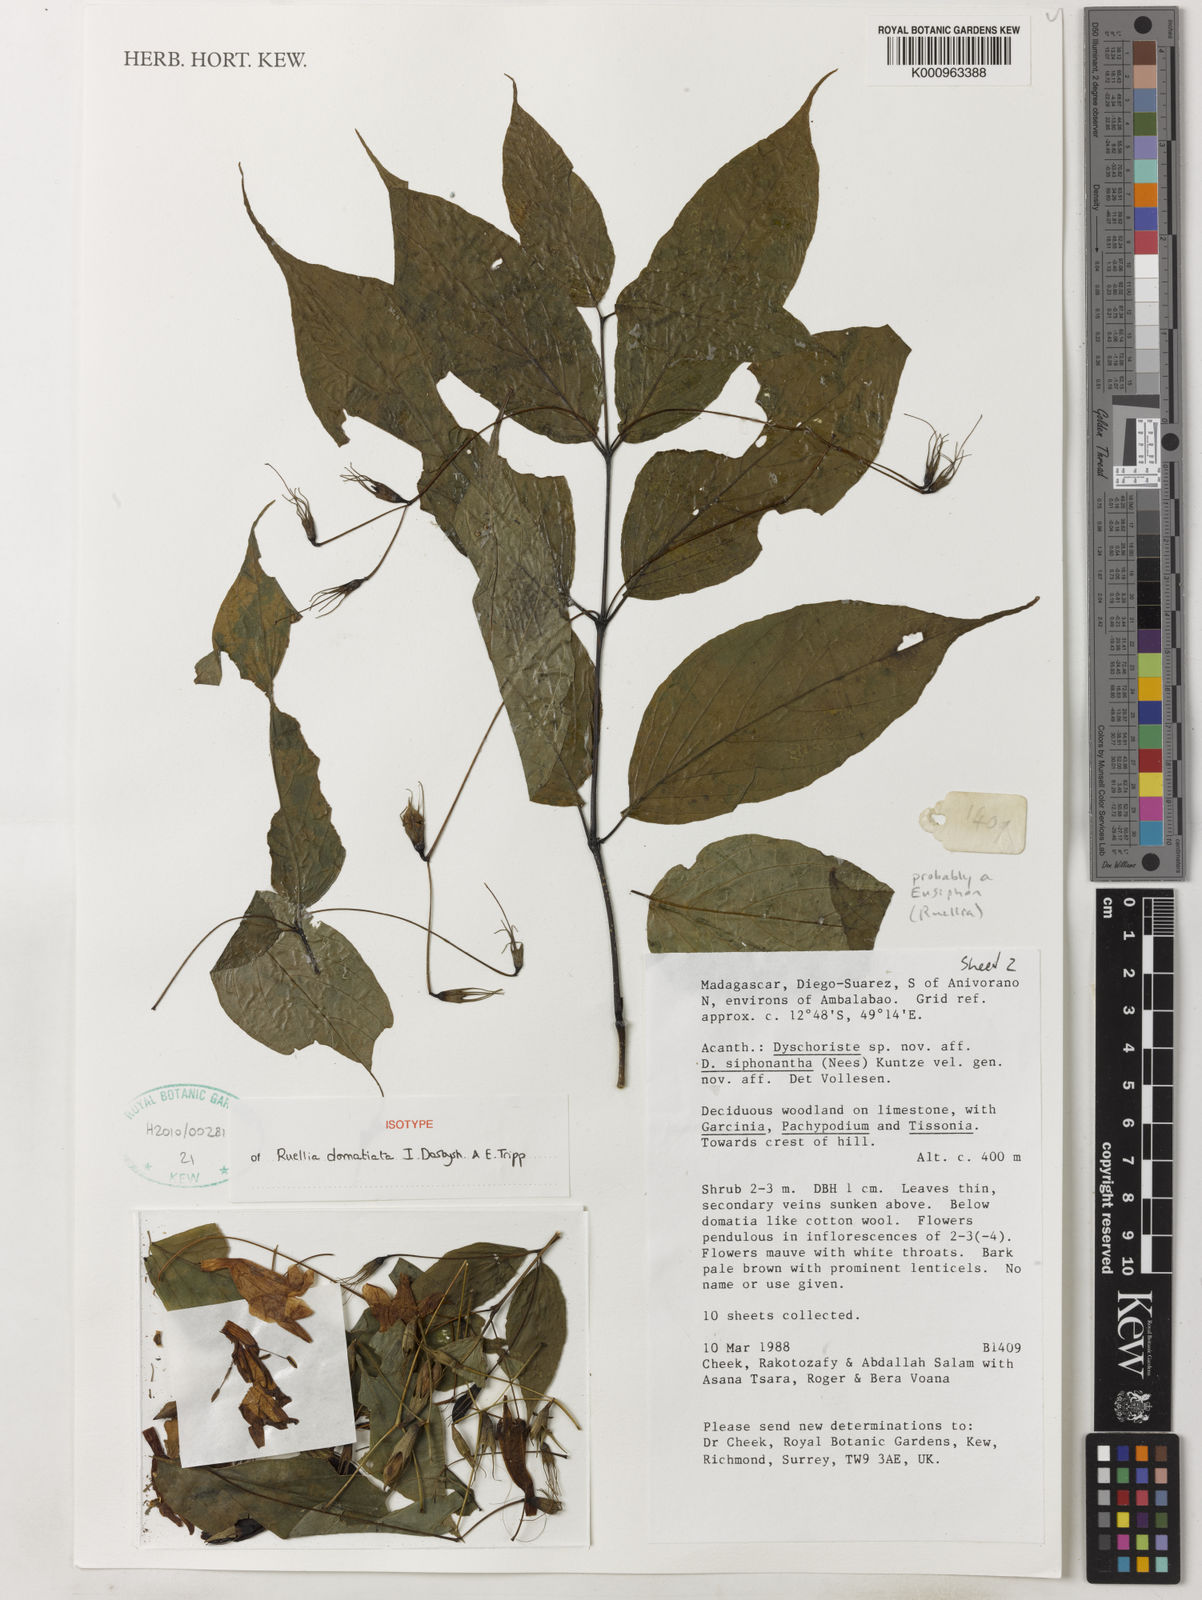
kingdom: Plantae
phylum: Tracheophyta
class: Magnoliopsida
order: Lamiales
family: Acanthaceae
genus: Ruellia
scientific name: Ruellia domatiata
